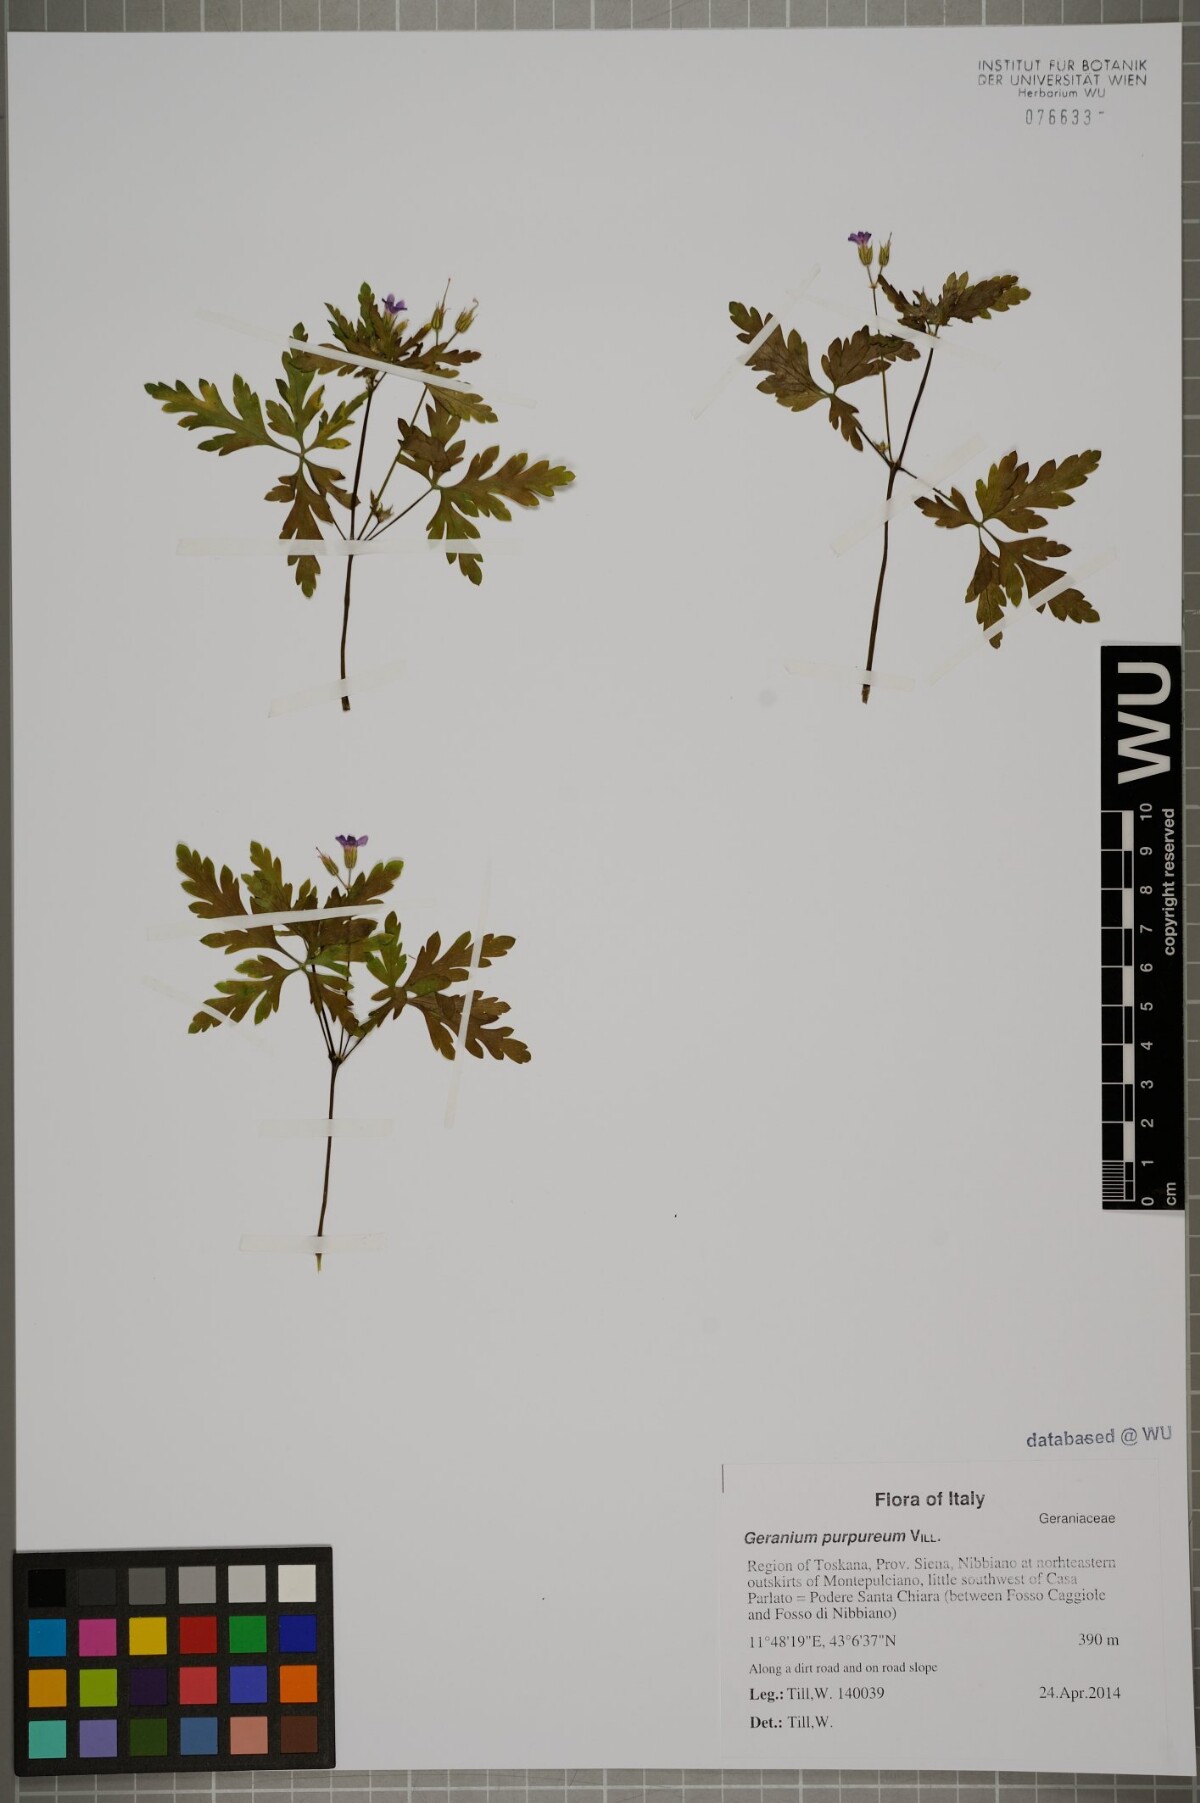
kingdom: Plantae
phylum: Tracheophyta
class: Magnoliopsida
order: Geraniales
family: Geraniaceae
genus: Geranium
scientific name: Geranium purpureum
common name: Little-robin
